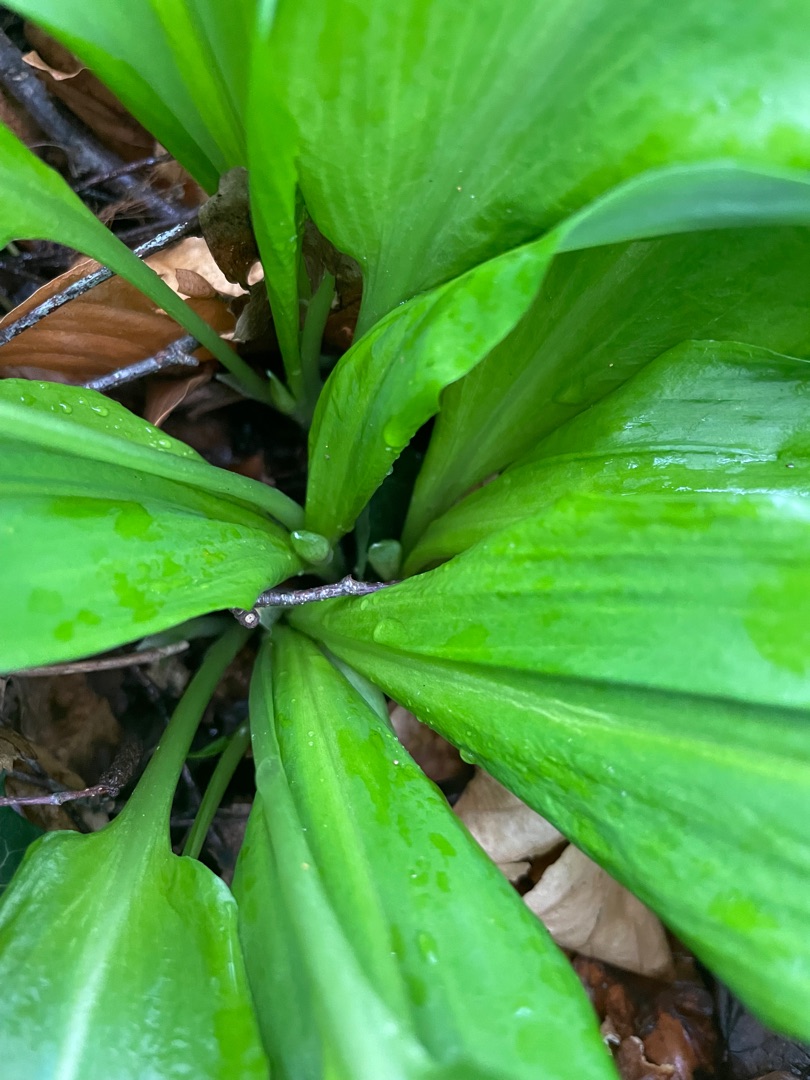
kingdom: Plantae
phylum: Tracheophyta
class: Liliopsida
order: Asparagales
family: Amaryllidaceae
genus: Allium
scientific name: Allium ursinum
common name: Rams-løg
